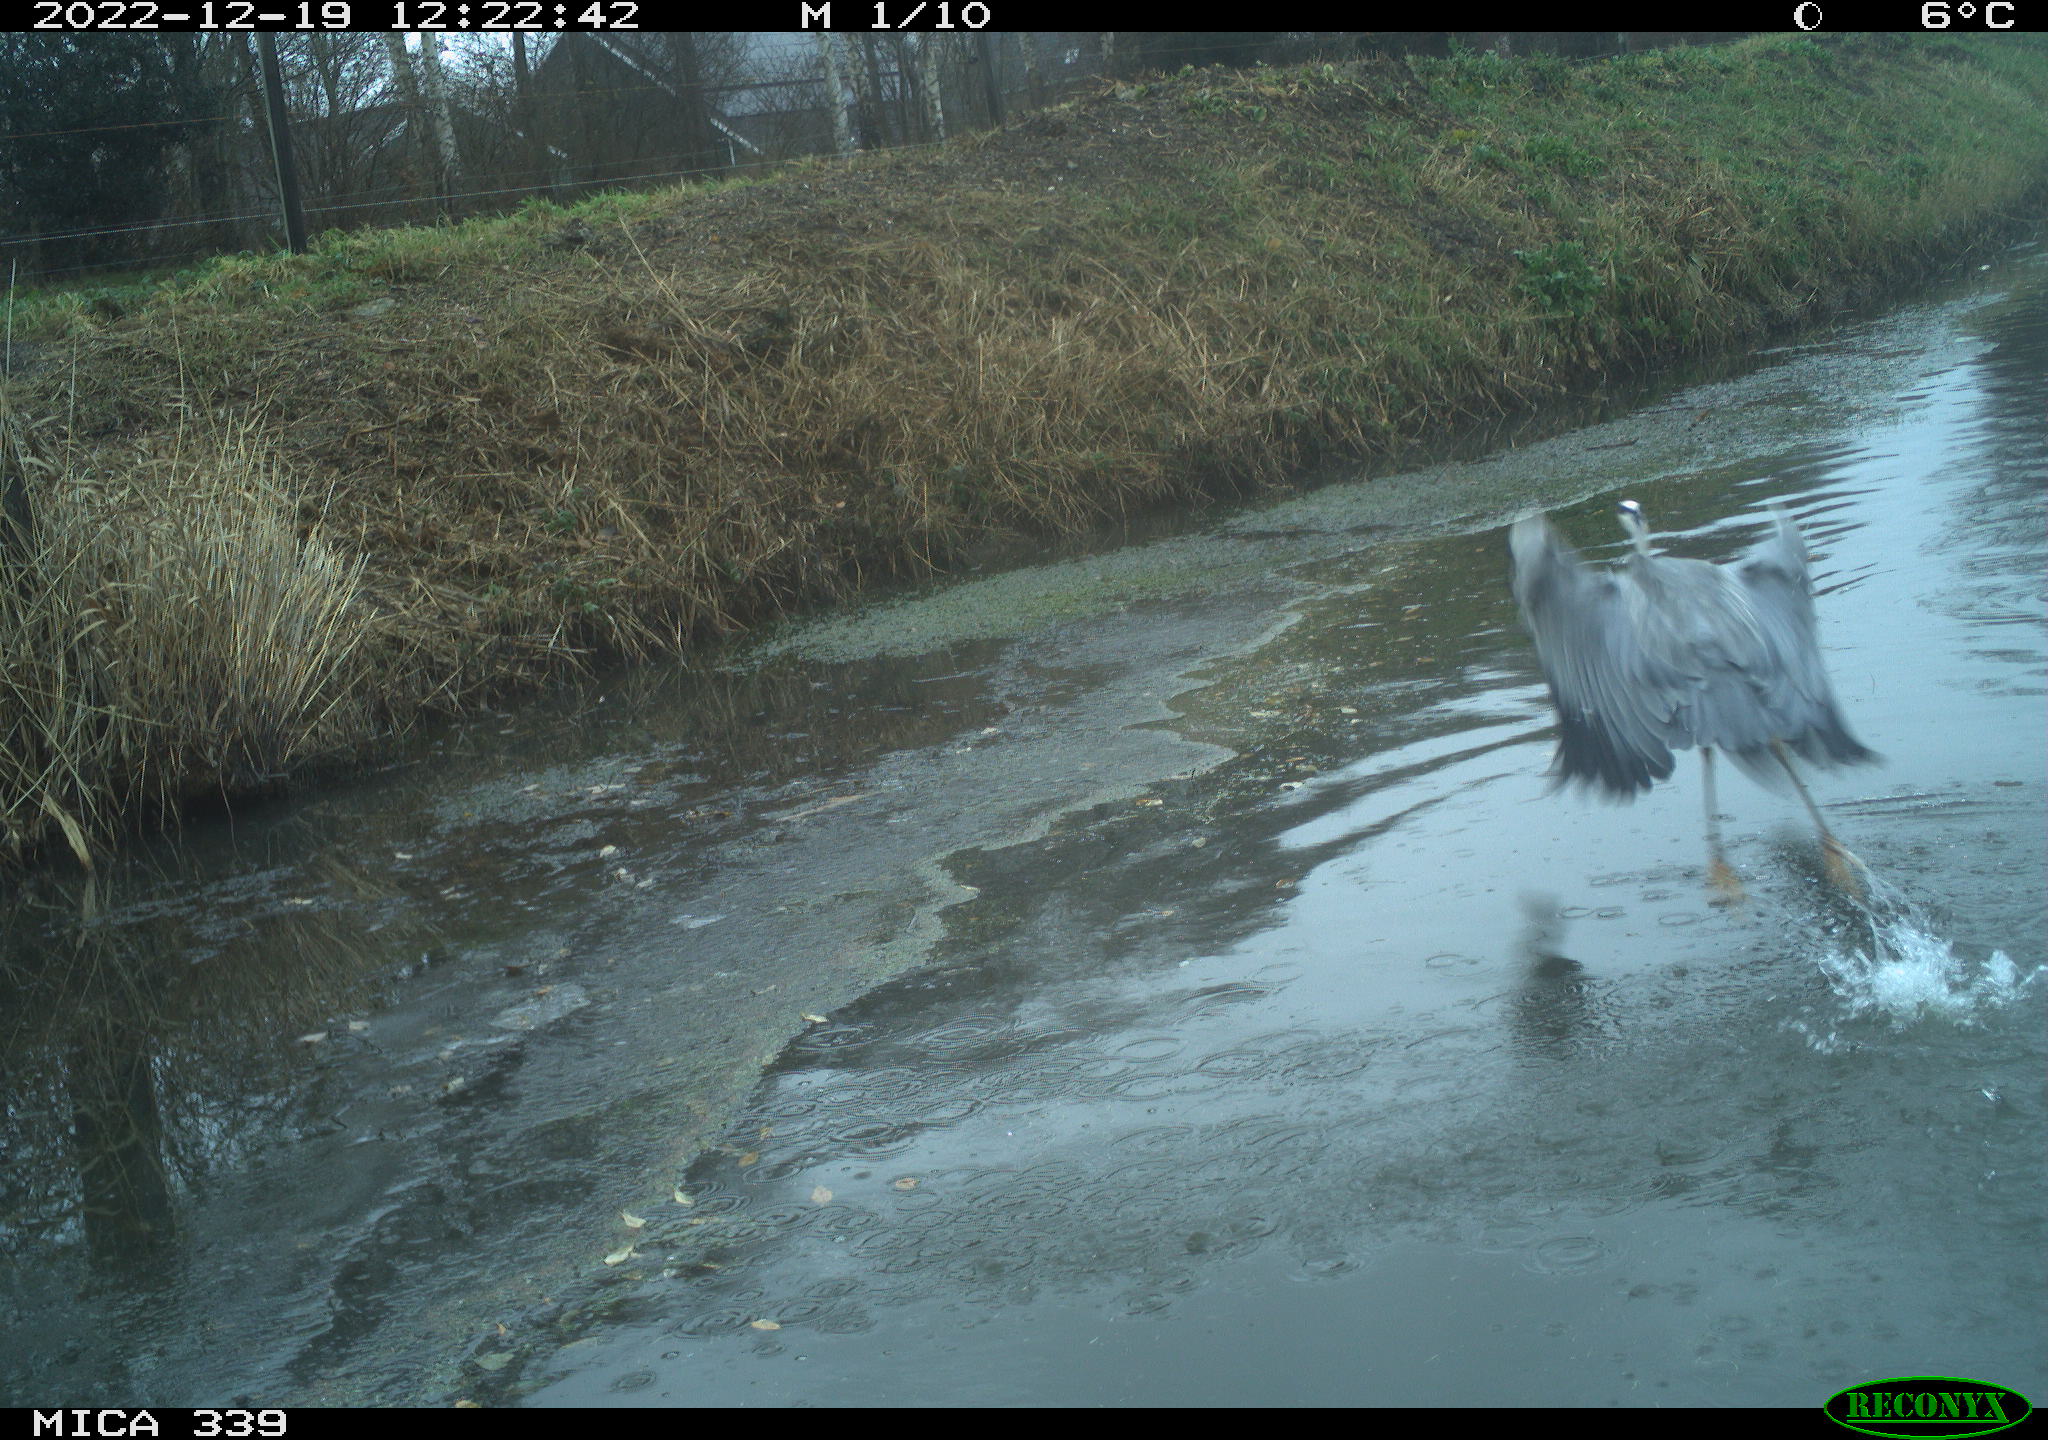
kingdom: Animalia
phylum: Chordata
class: Aves
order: Pelecaniformes
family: Ardeidae
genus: Ardea
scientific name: Ardea cinerea
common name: Grey heron
